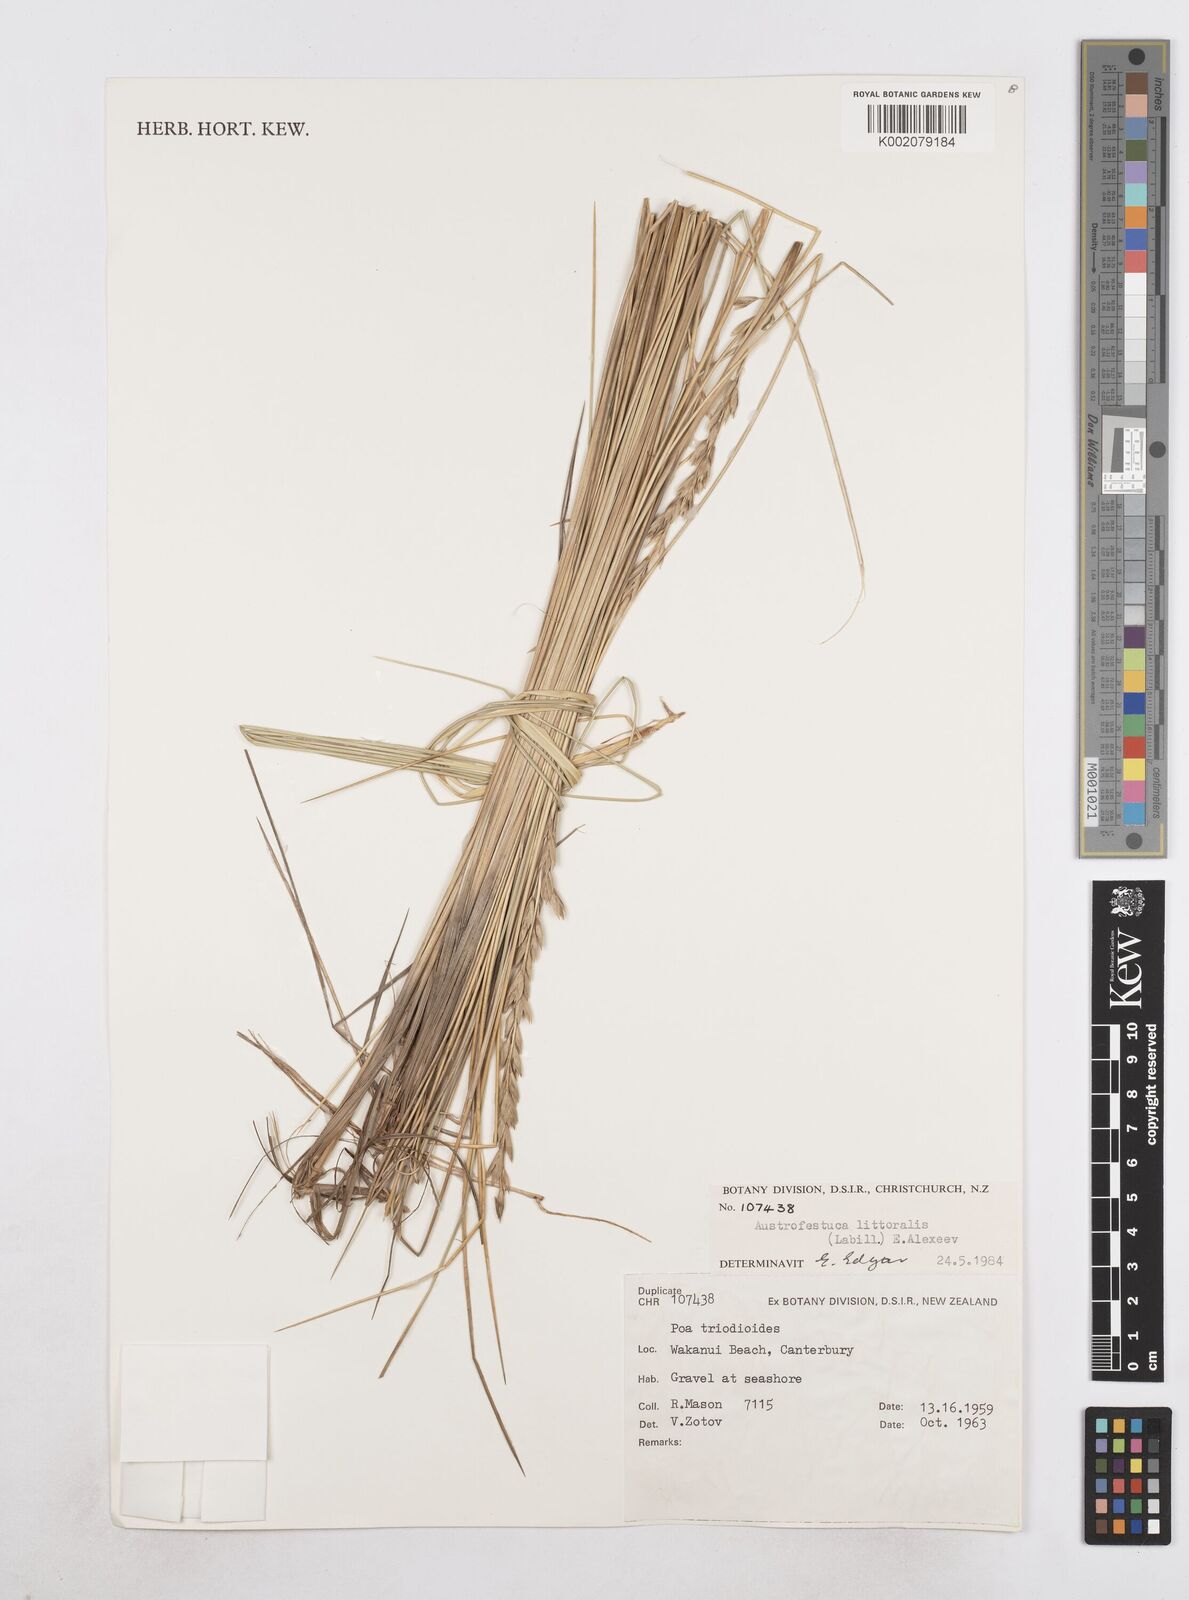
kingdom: Plantae
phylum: Tracheophyta
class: Liliopsida
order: Poales
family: Poaceae
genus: Poa
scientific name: Poa triodioides
